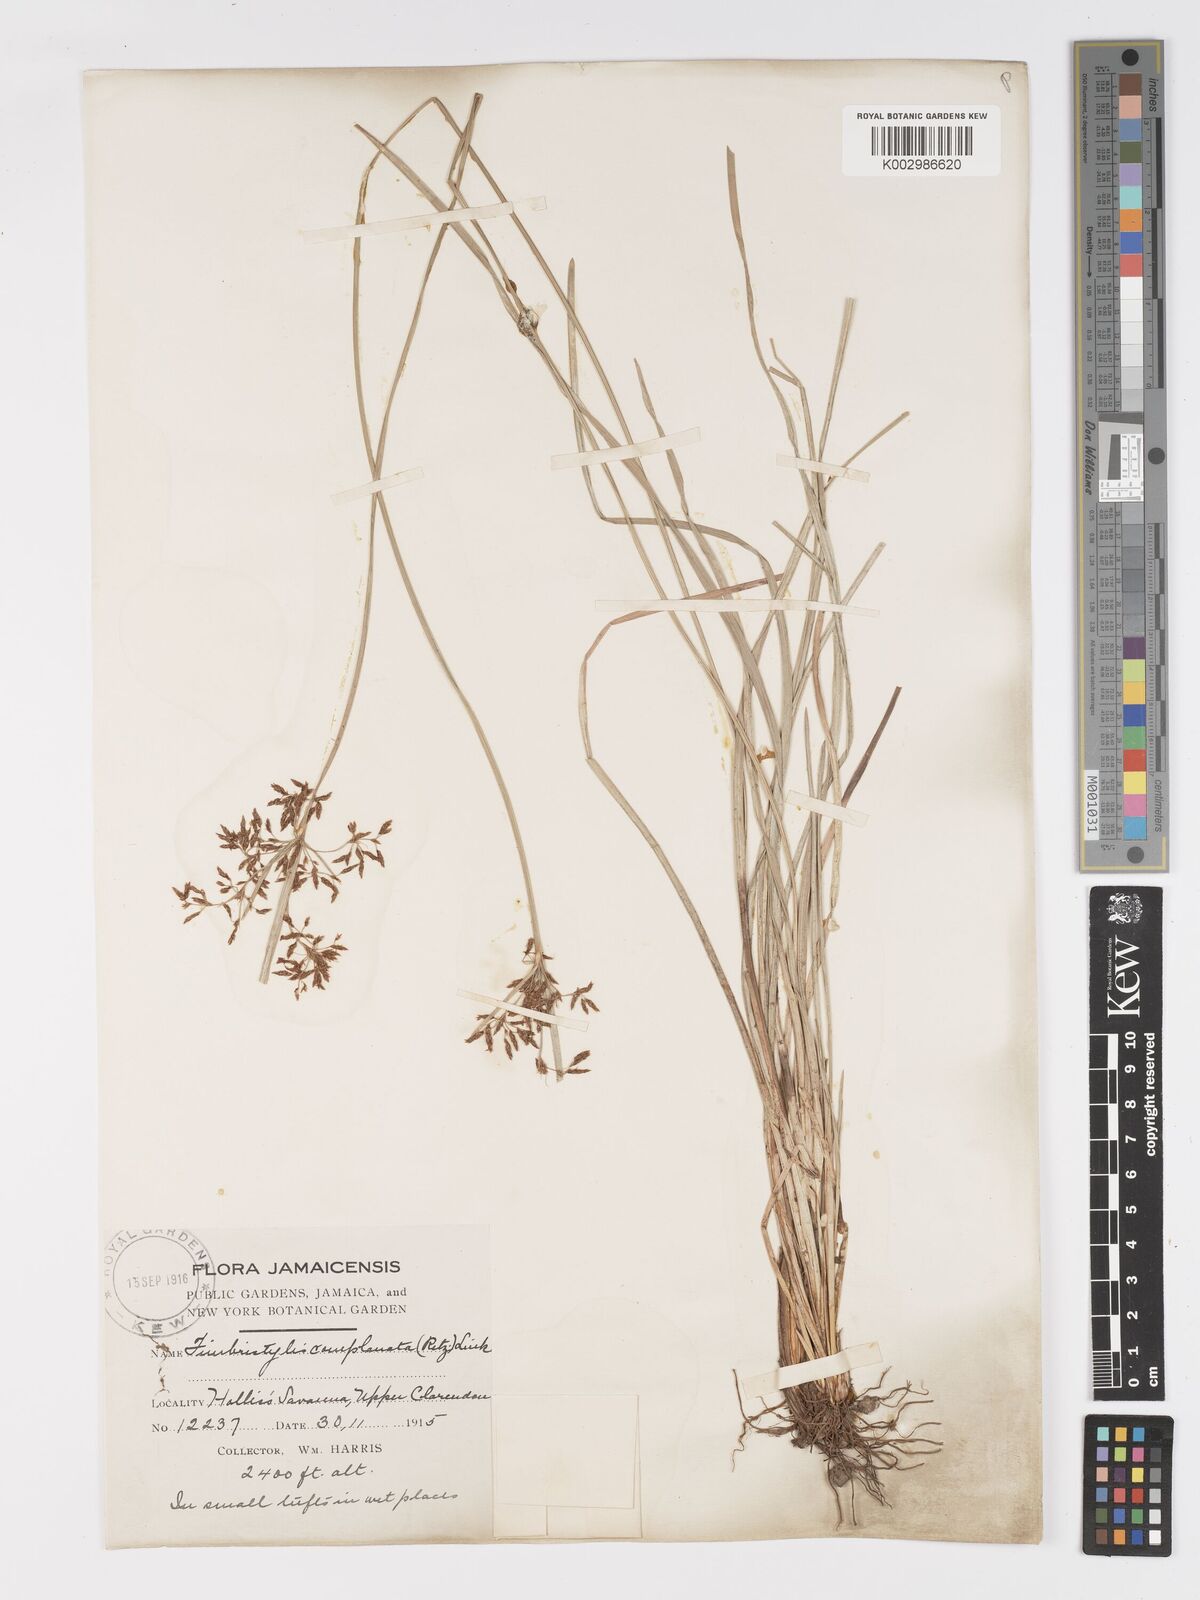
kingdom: Plantae
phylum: Tracheophyta
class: Liliopsida
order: Poales
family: Cyperaceae
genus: Fimbristylis
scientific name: Fimbristylis complanata
